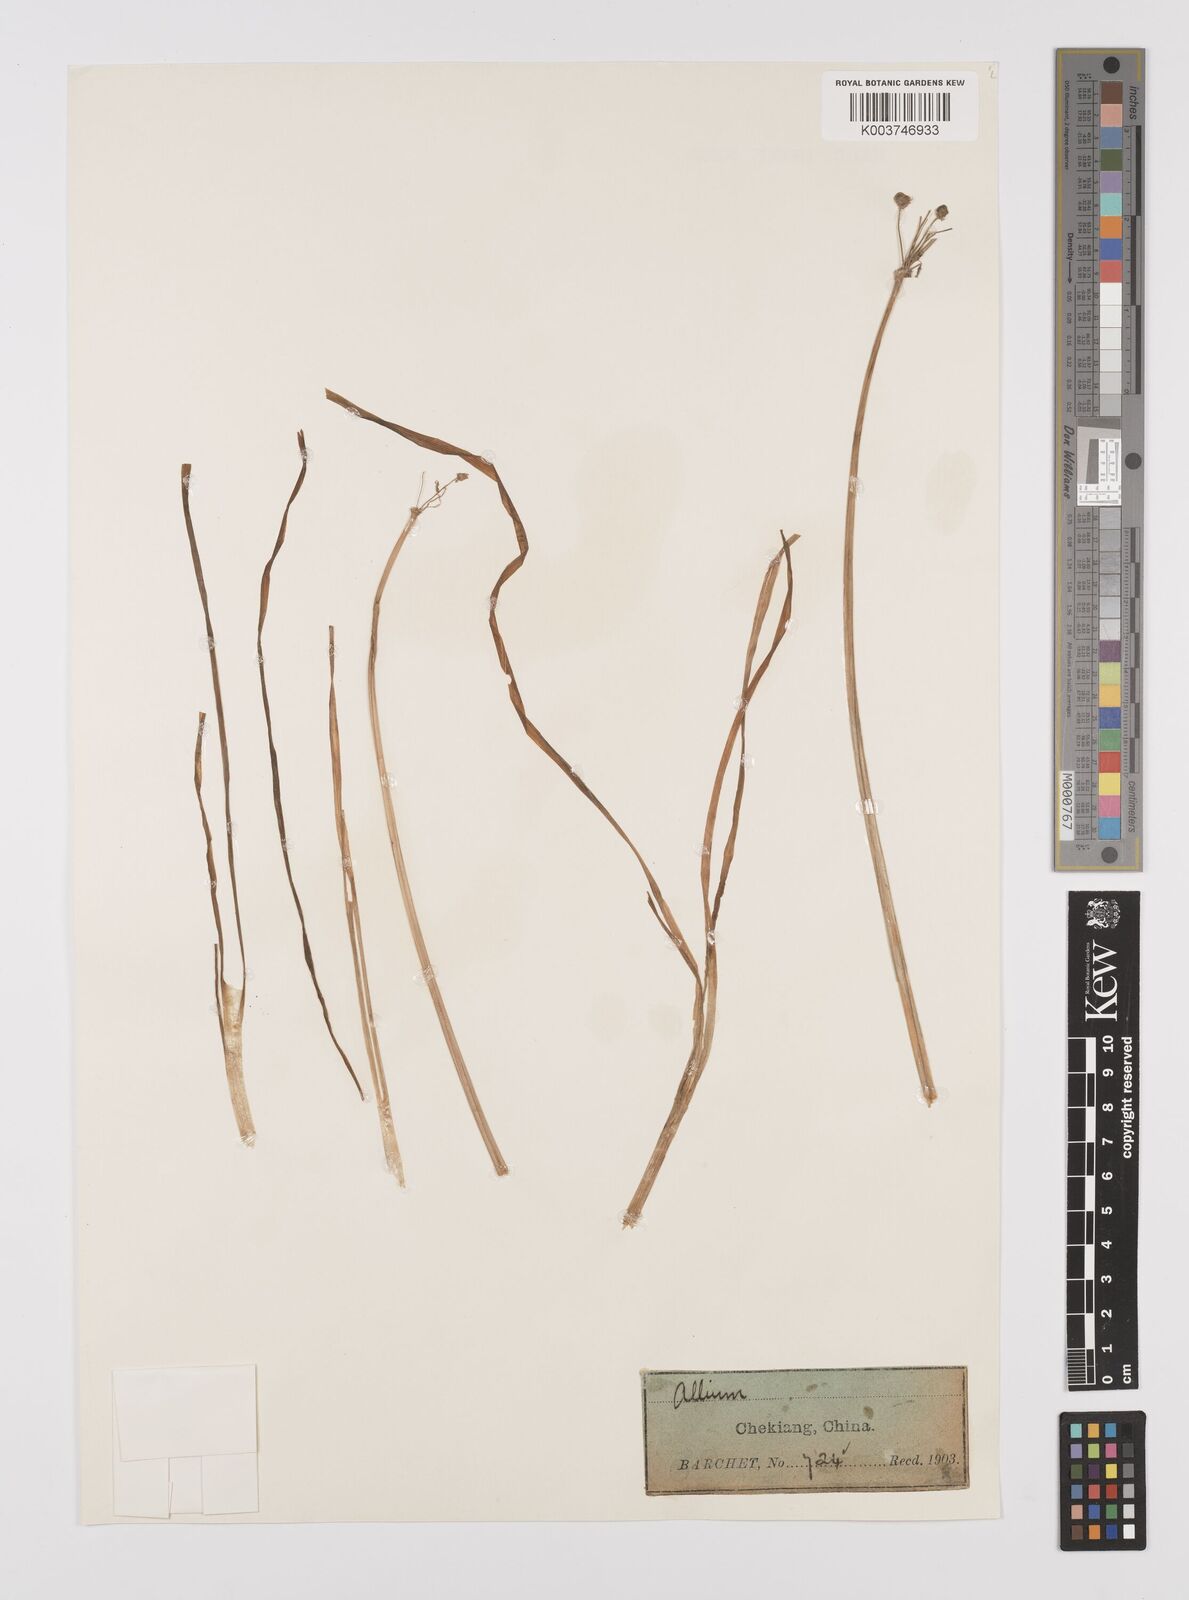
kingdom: Plantae
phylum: Tracheophyta
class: Liliopsida
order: Asparagales
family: Amaryllidaceae
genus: Allium
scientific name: Allium
